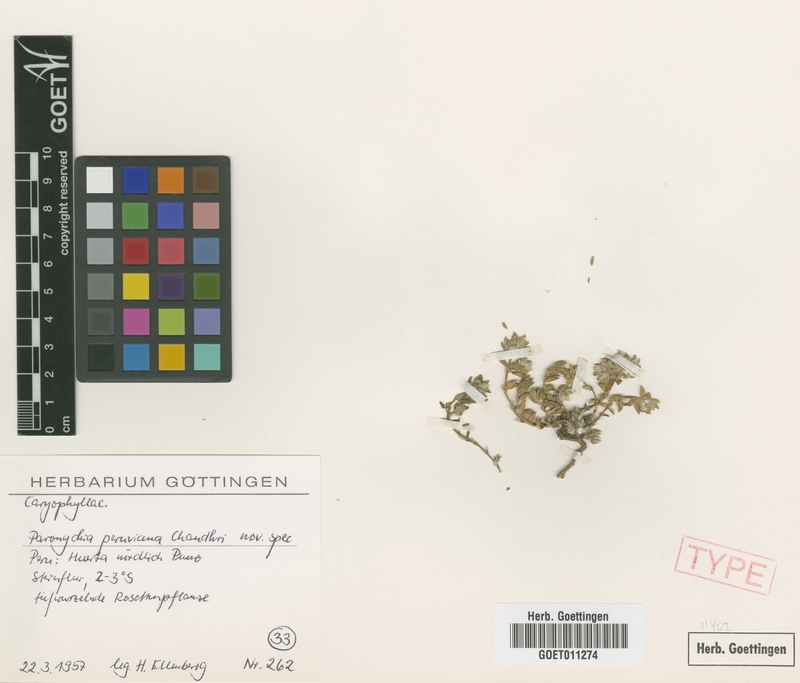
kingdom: Plantae
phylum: Tracheophyta
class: Magnoliopsida
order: Caryophyllales
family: Caryophyllaceae
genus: Paronychia
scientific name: Paronychia peruviana
